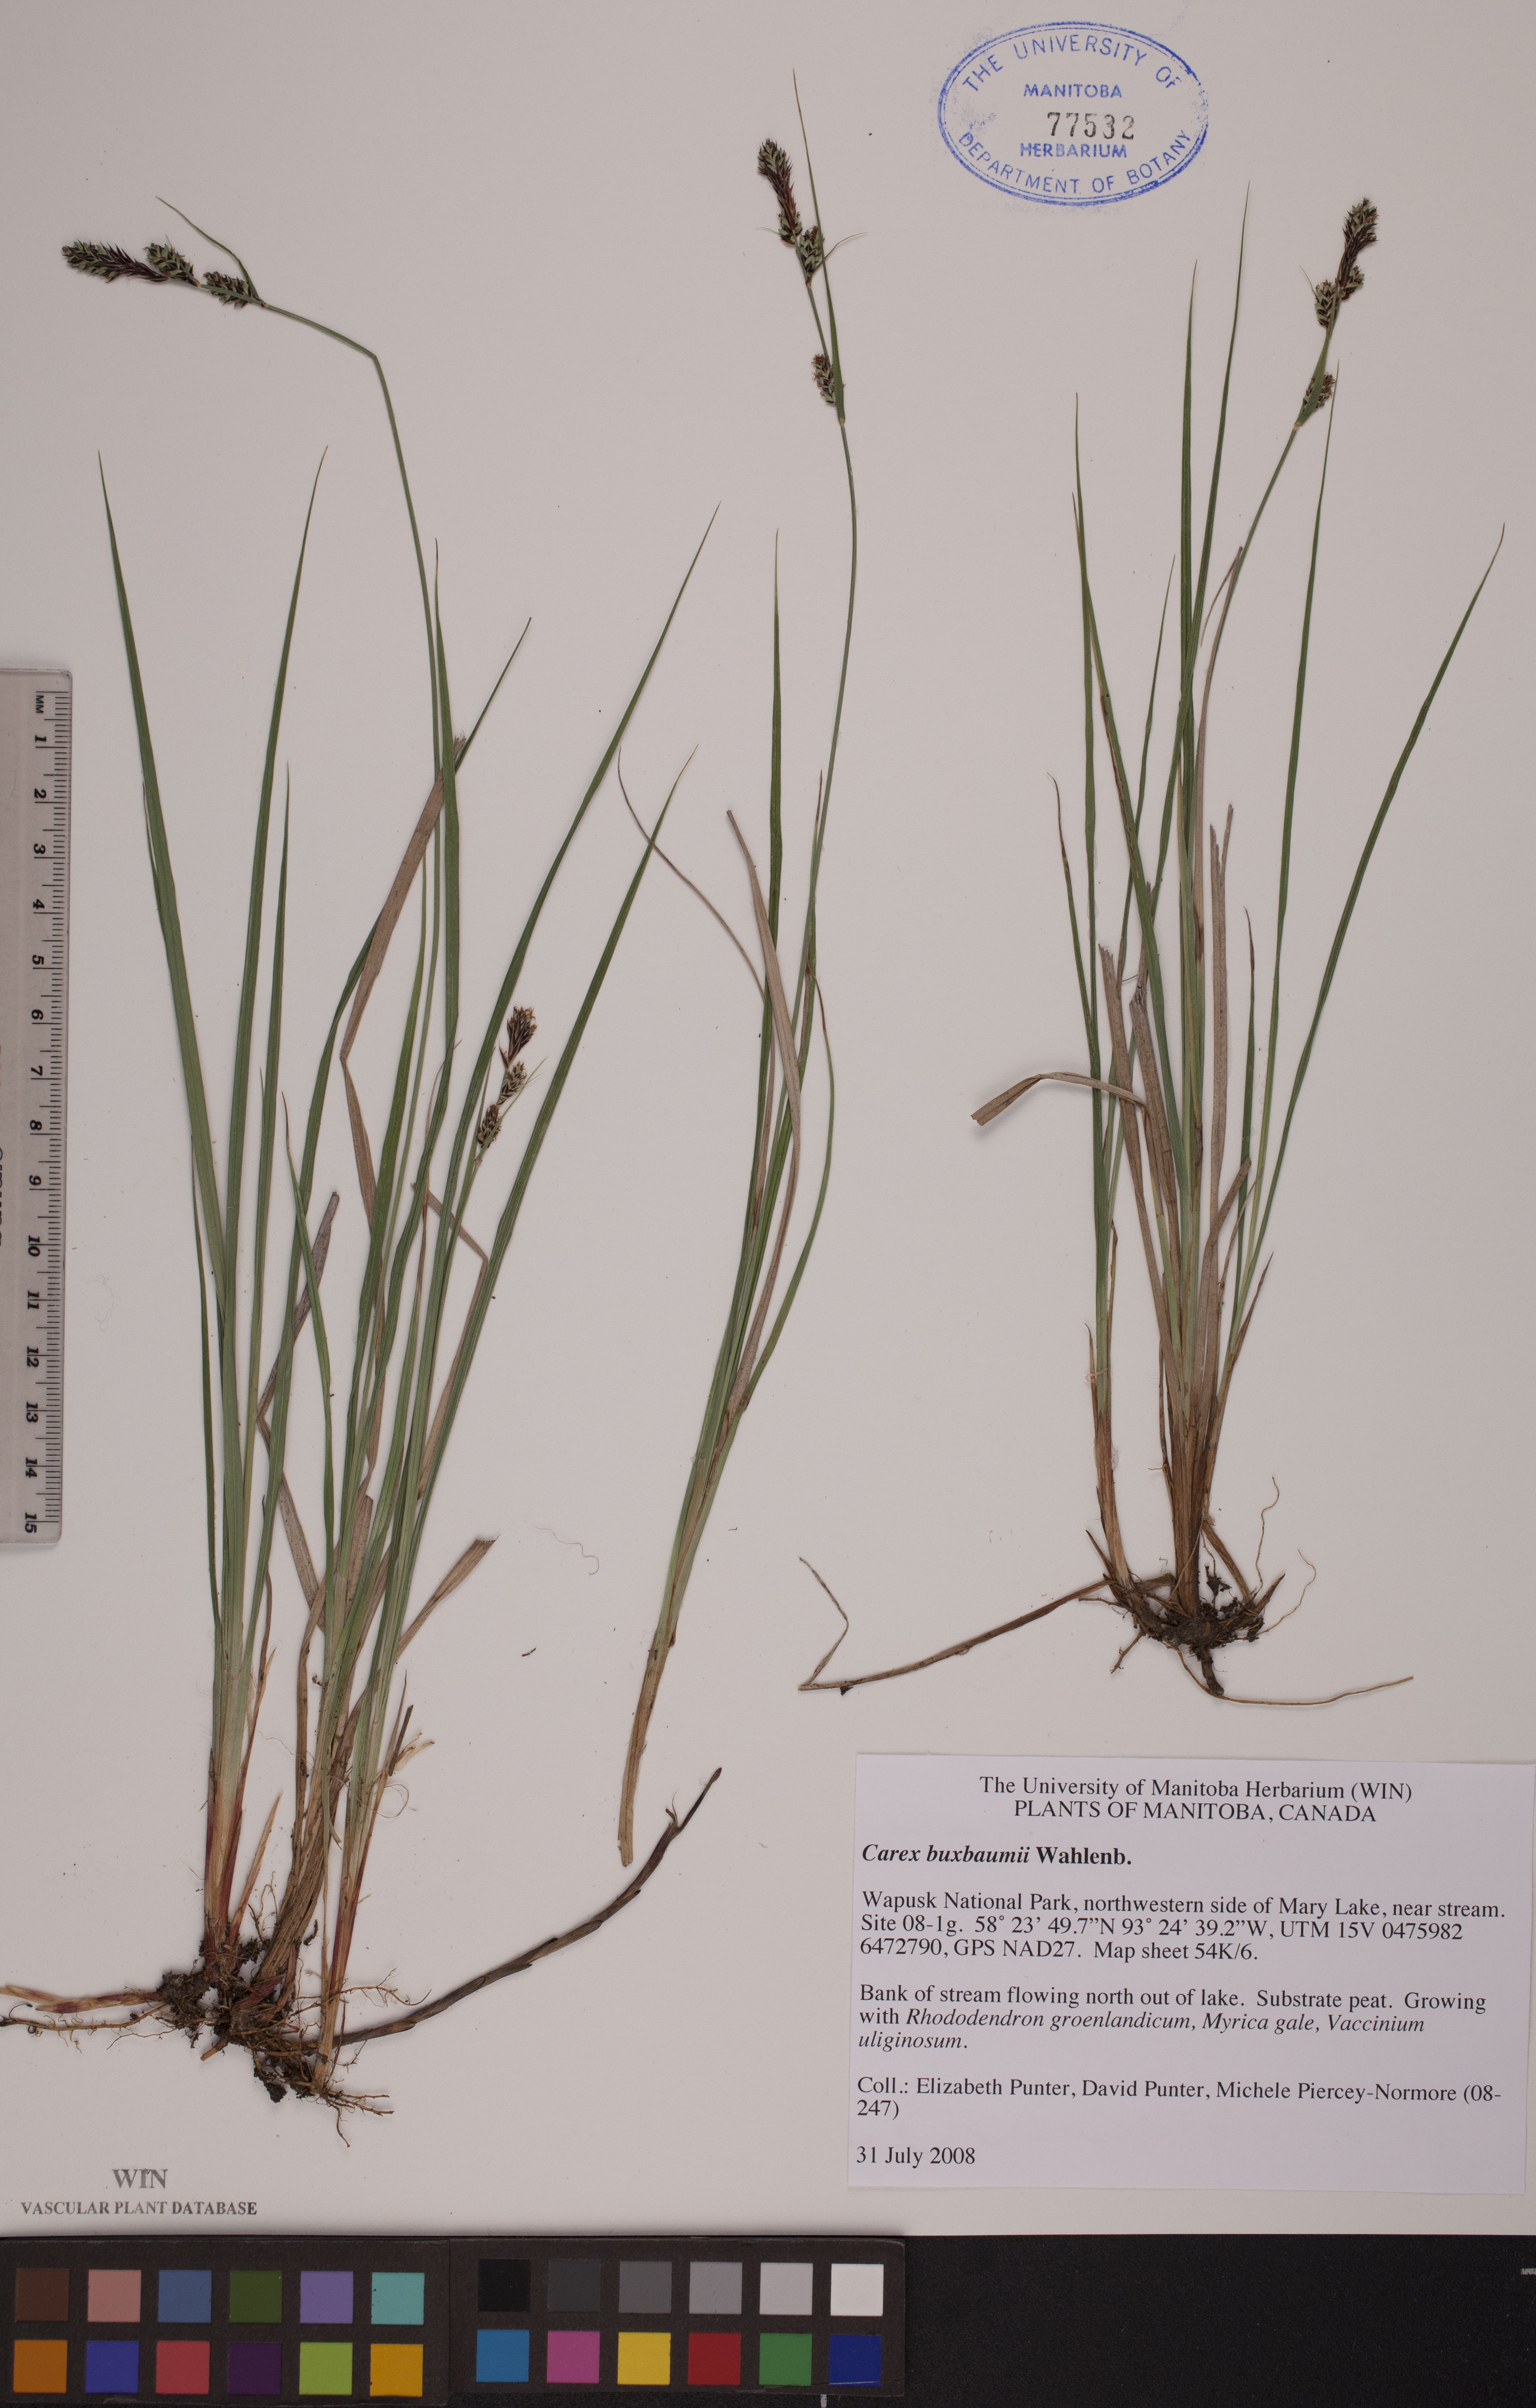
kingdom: Plantae
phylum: Tracheophyta
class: Liliopsida
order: Poales
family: Cyperaceae
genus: Carex
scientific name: Carex buxbaumii
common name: Club sedge
